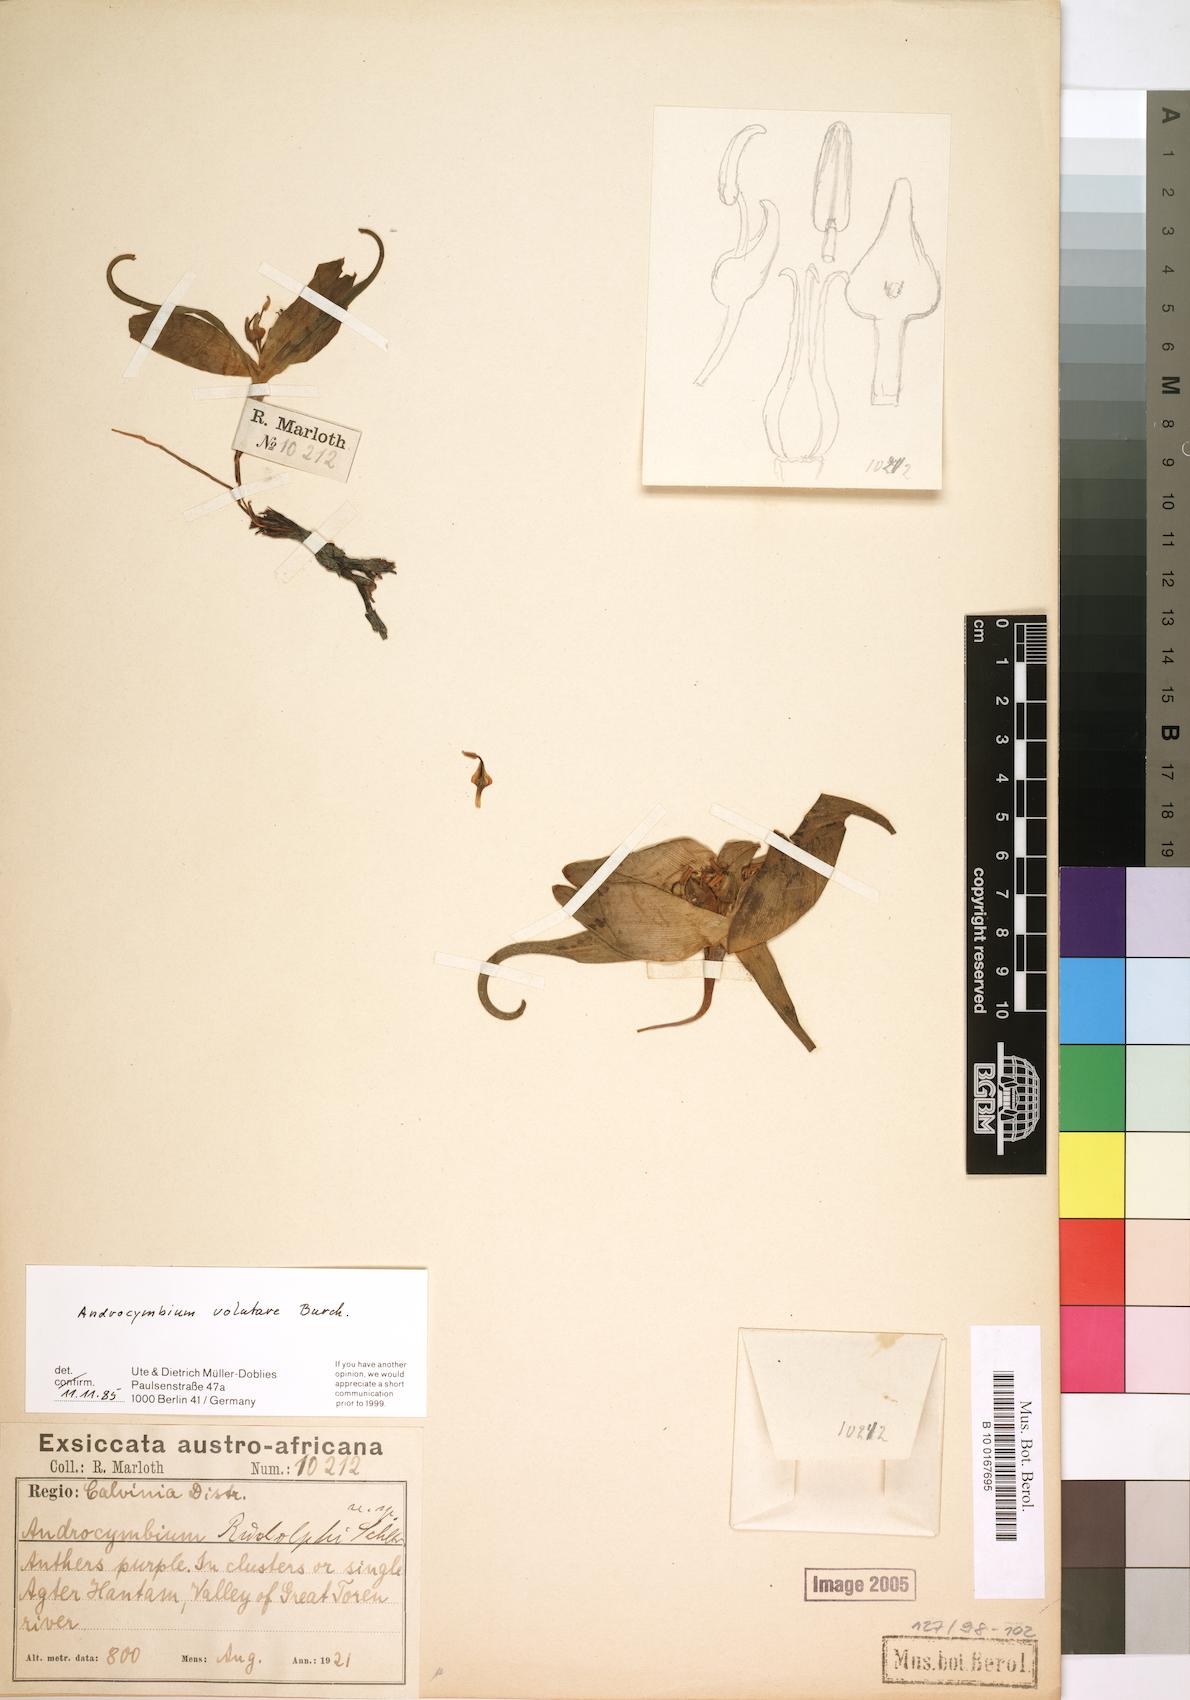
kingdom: Plantae
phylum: Tracheophyta
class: Liliopsida
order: Liliales
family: Colchicaceae
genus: Colchicum
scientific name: Colchicum volutare
